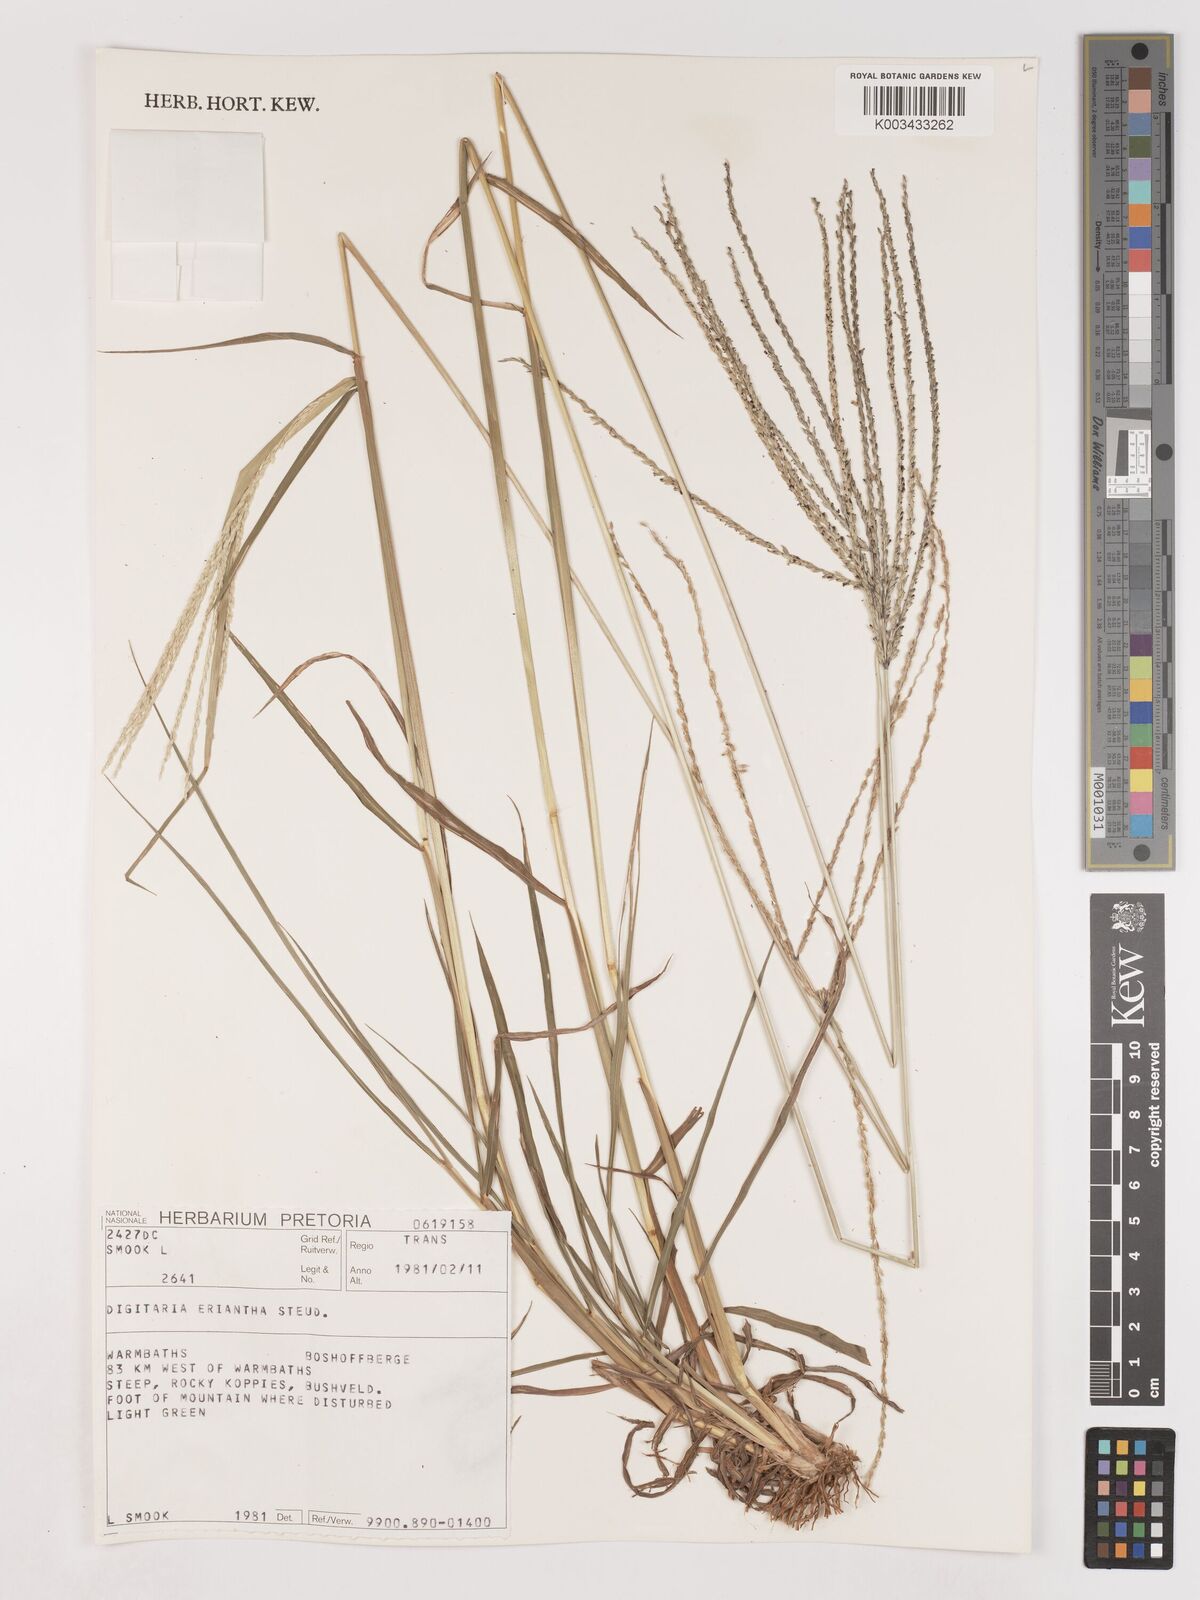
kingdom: Plantae
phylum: Tracheophyta
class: Liliopsida
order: Poales
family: Poaceae
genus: Digitaria
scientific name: Digitaria eriantha
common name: Digitgrass
